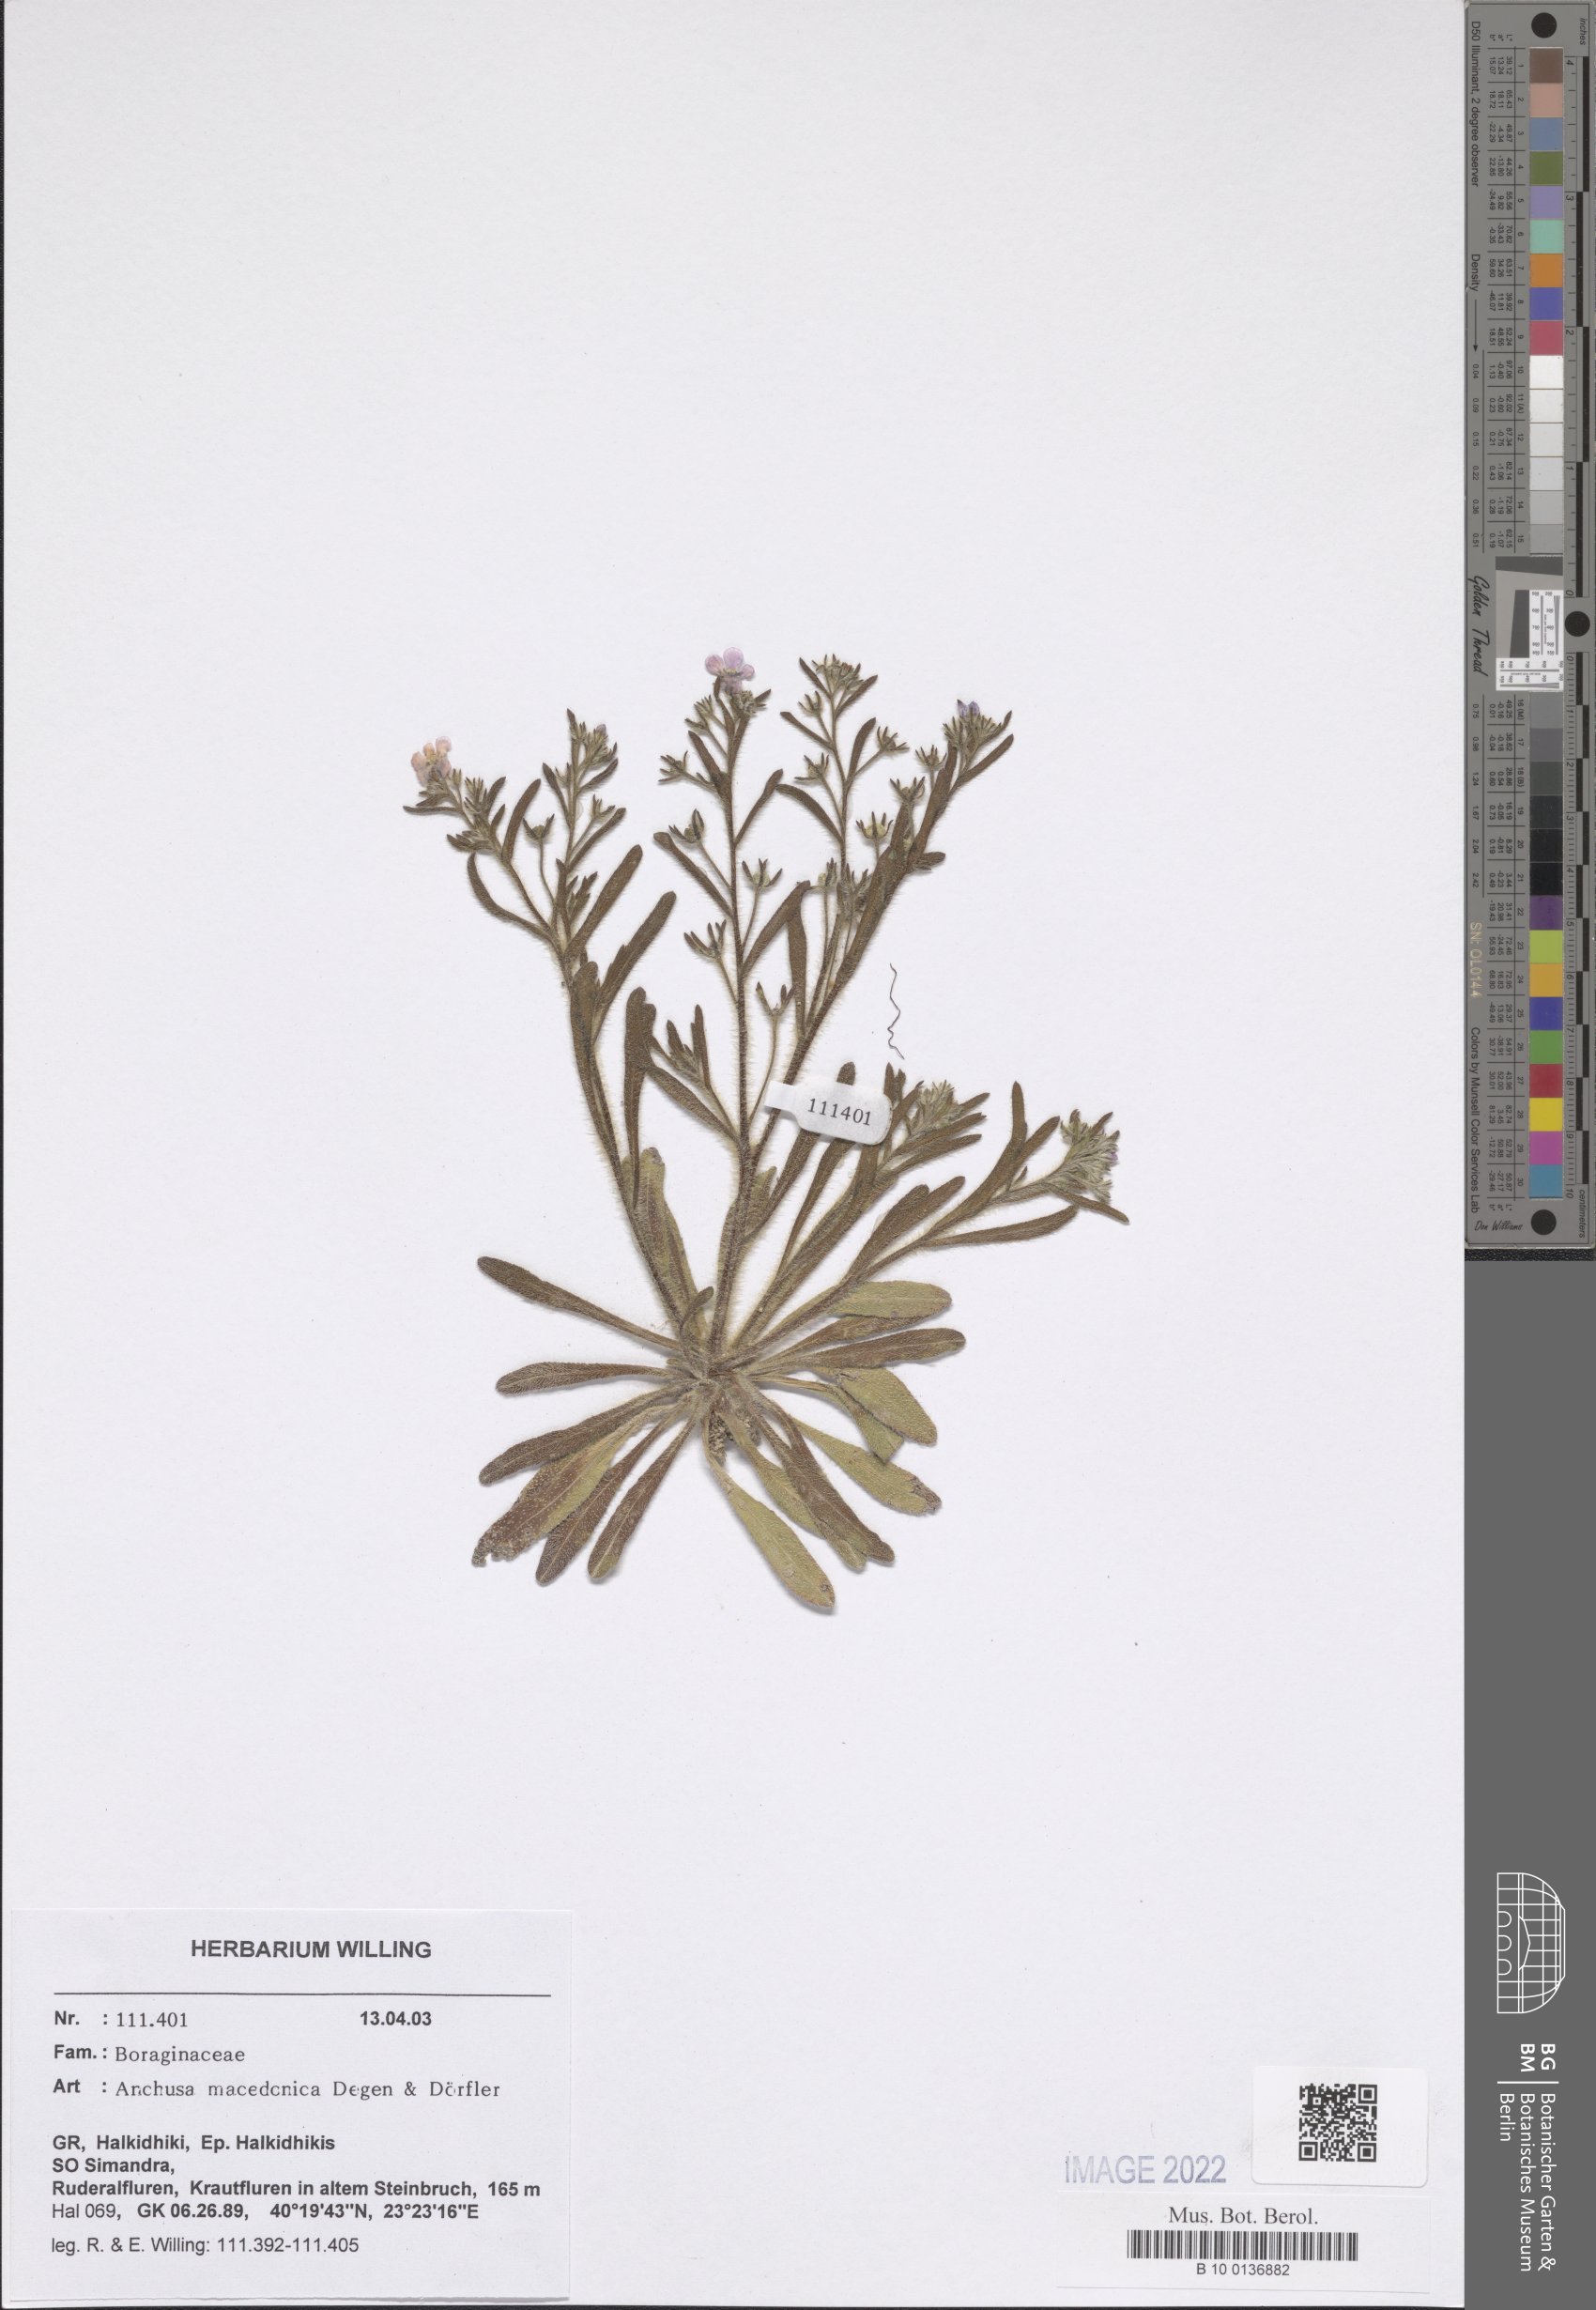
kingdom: Plantae
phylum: Tracheophyta
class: Magnoliopsida
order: Boraginales
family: Boraginaceae
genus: Anchusa
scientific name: Anchusa officinalis
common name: Alkanet
